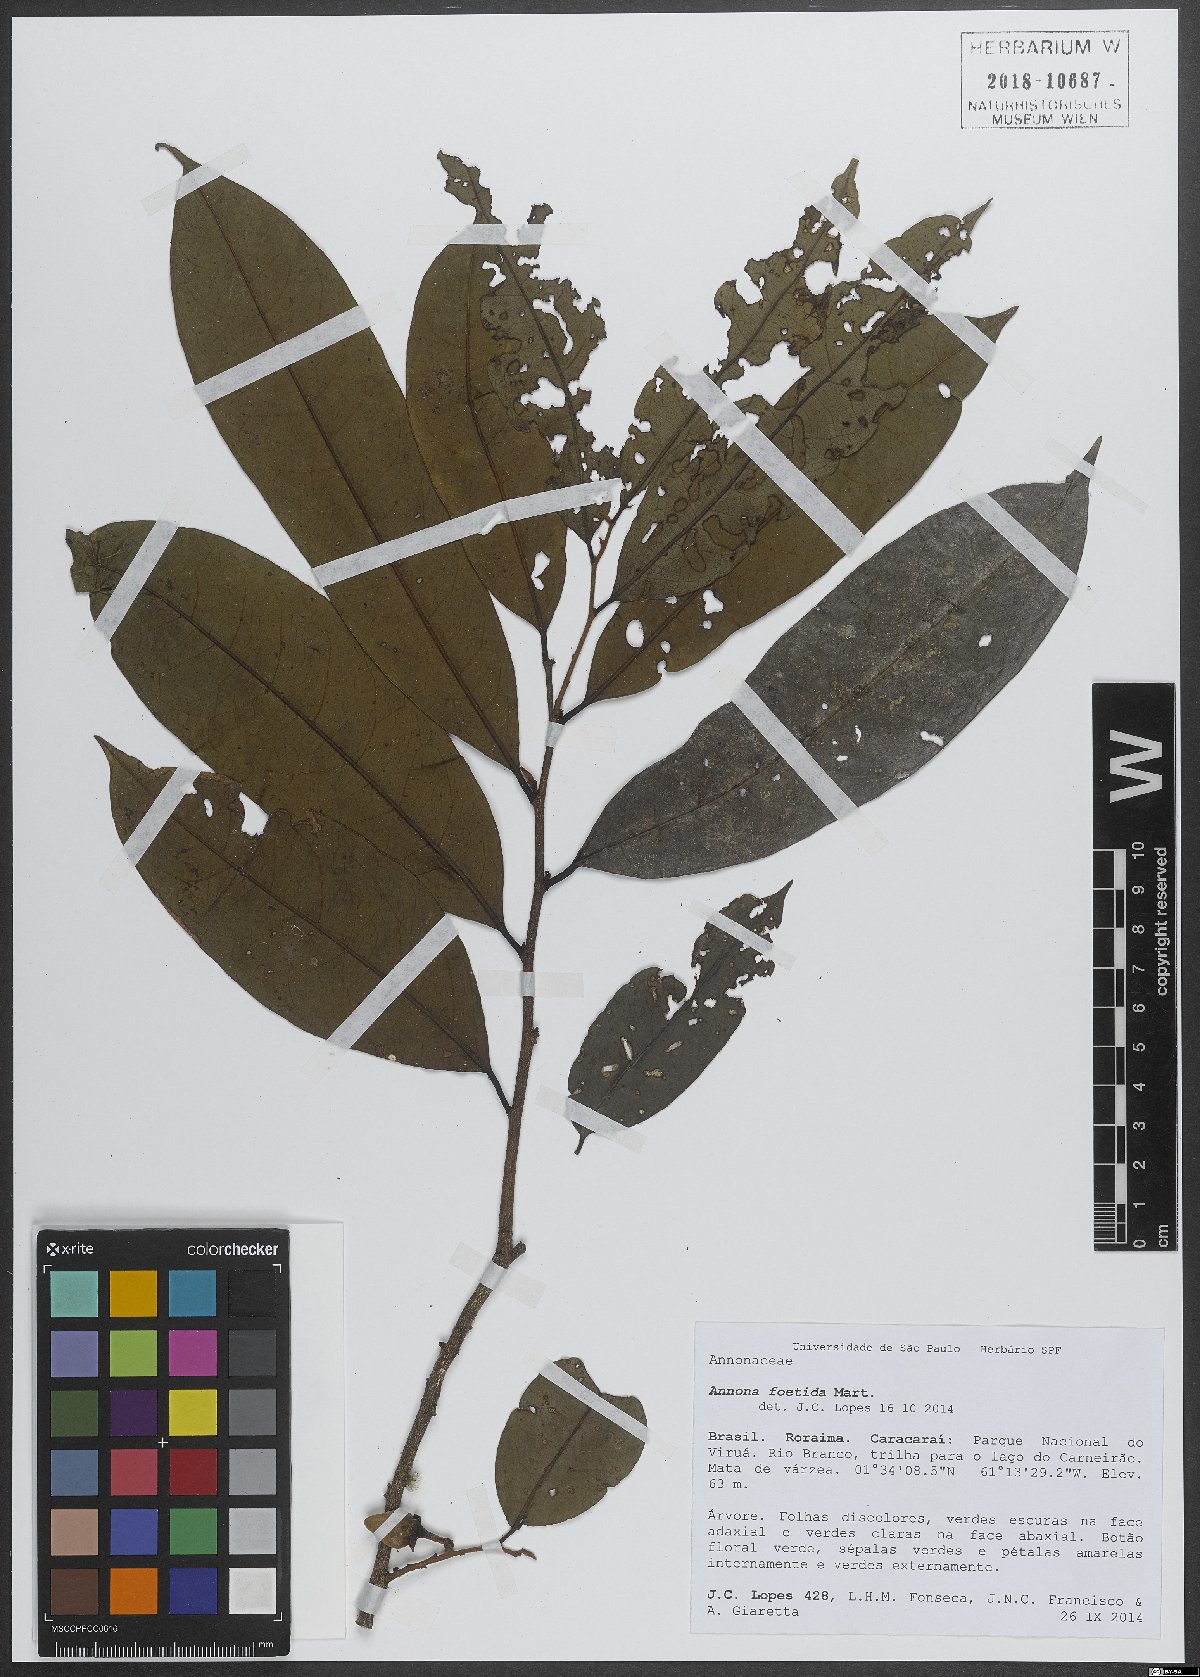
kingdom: Plantae
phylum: Tracheophyta
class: Magnoliopsida
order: Magnoliales
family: Annonaceae
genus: Annona
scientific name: Annona foetida
